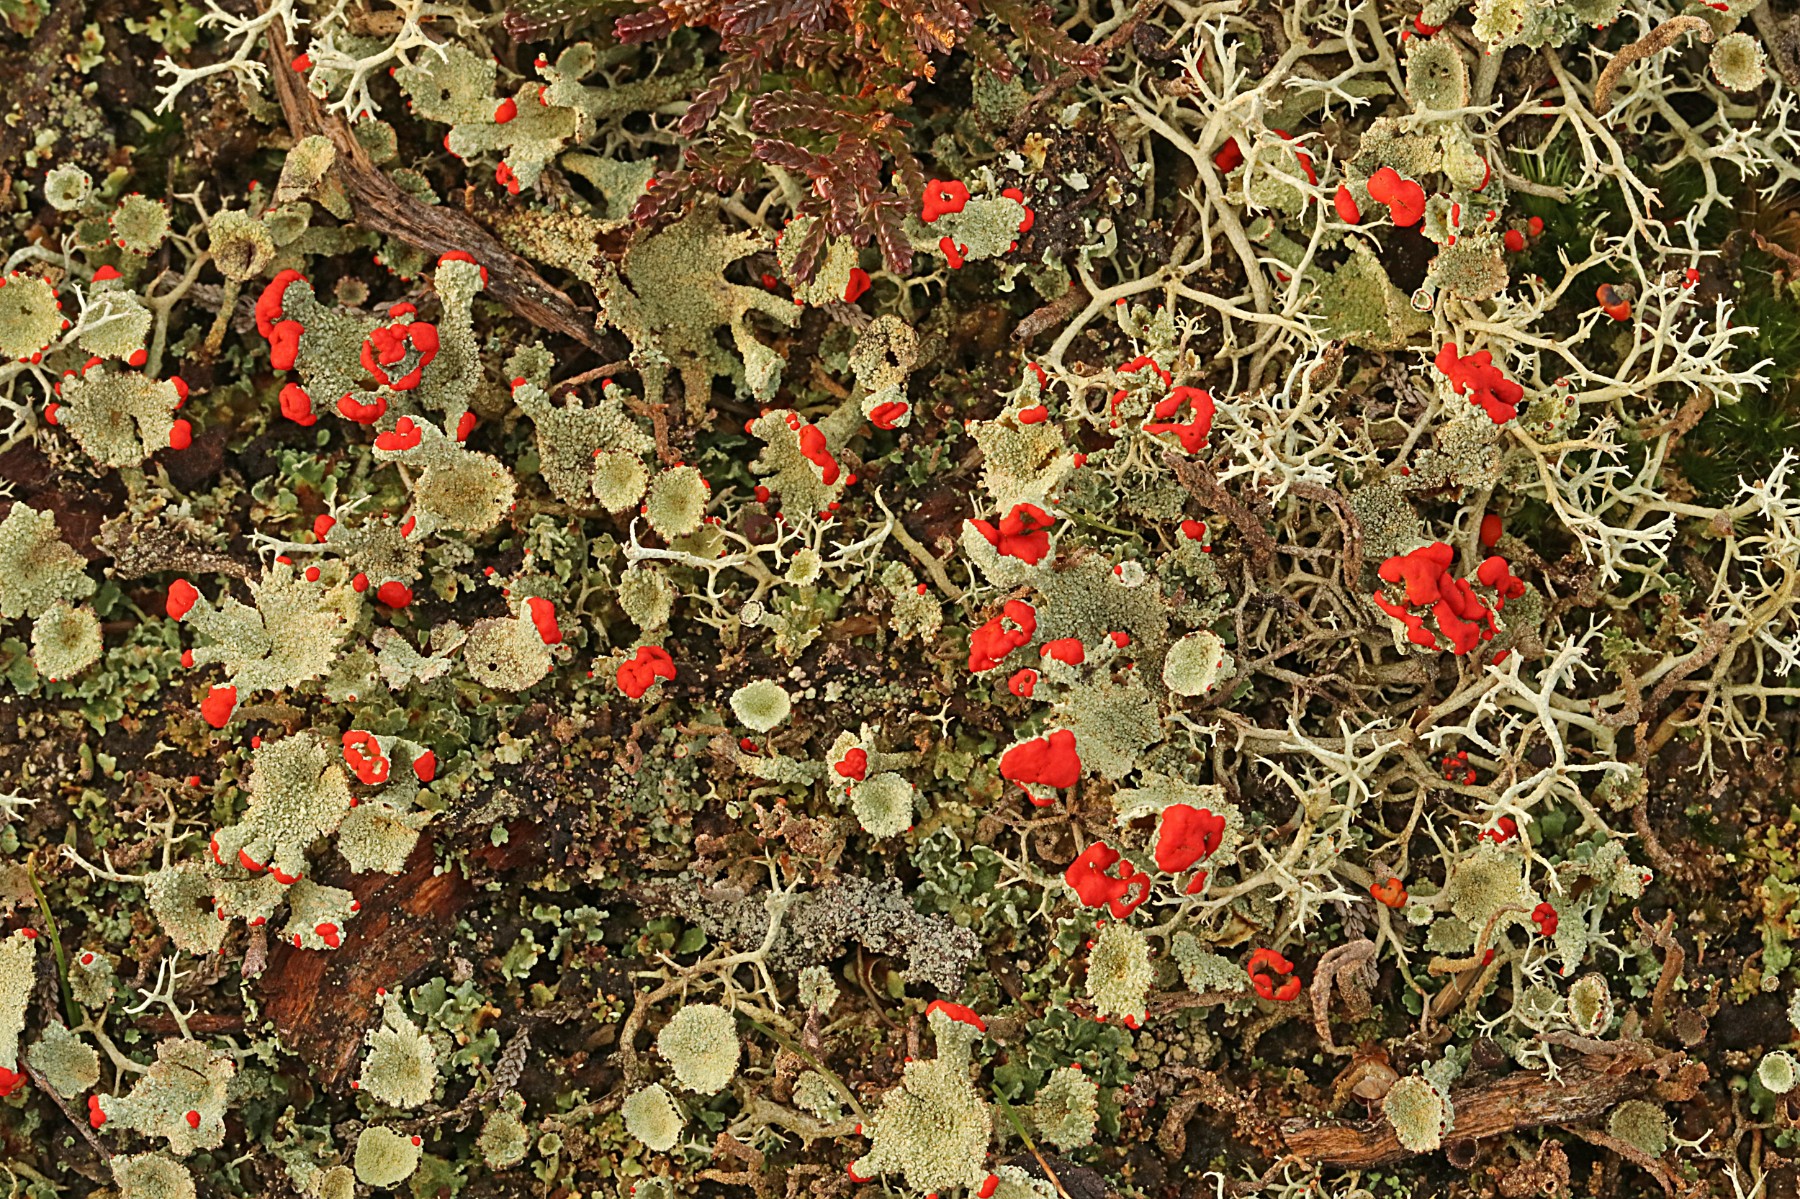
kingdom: Fungi
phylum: Ascomycota
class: Lecanoromycetes
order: Lecanorales
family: Cladoniaceae
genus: Cladonia
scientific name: Cladonia diversa
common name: rød bægerlav
